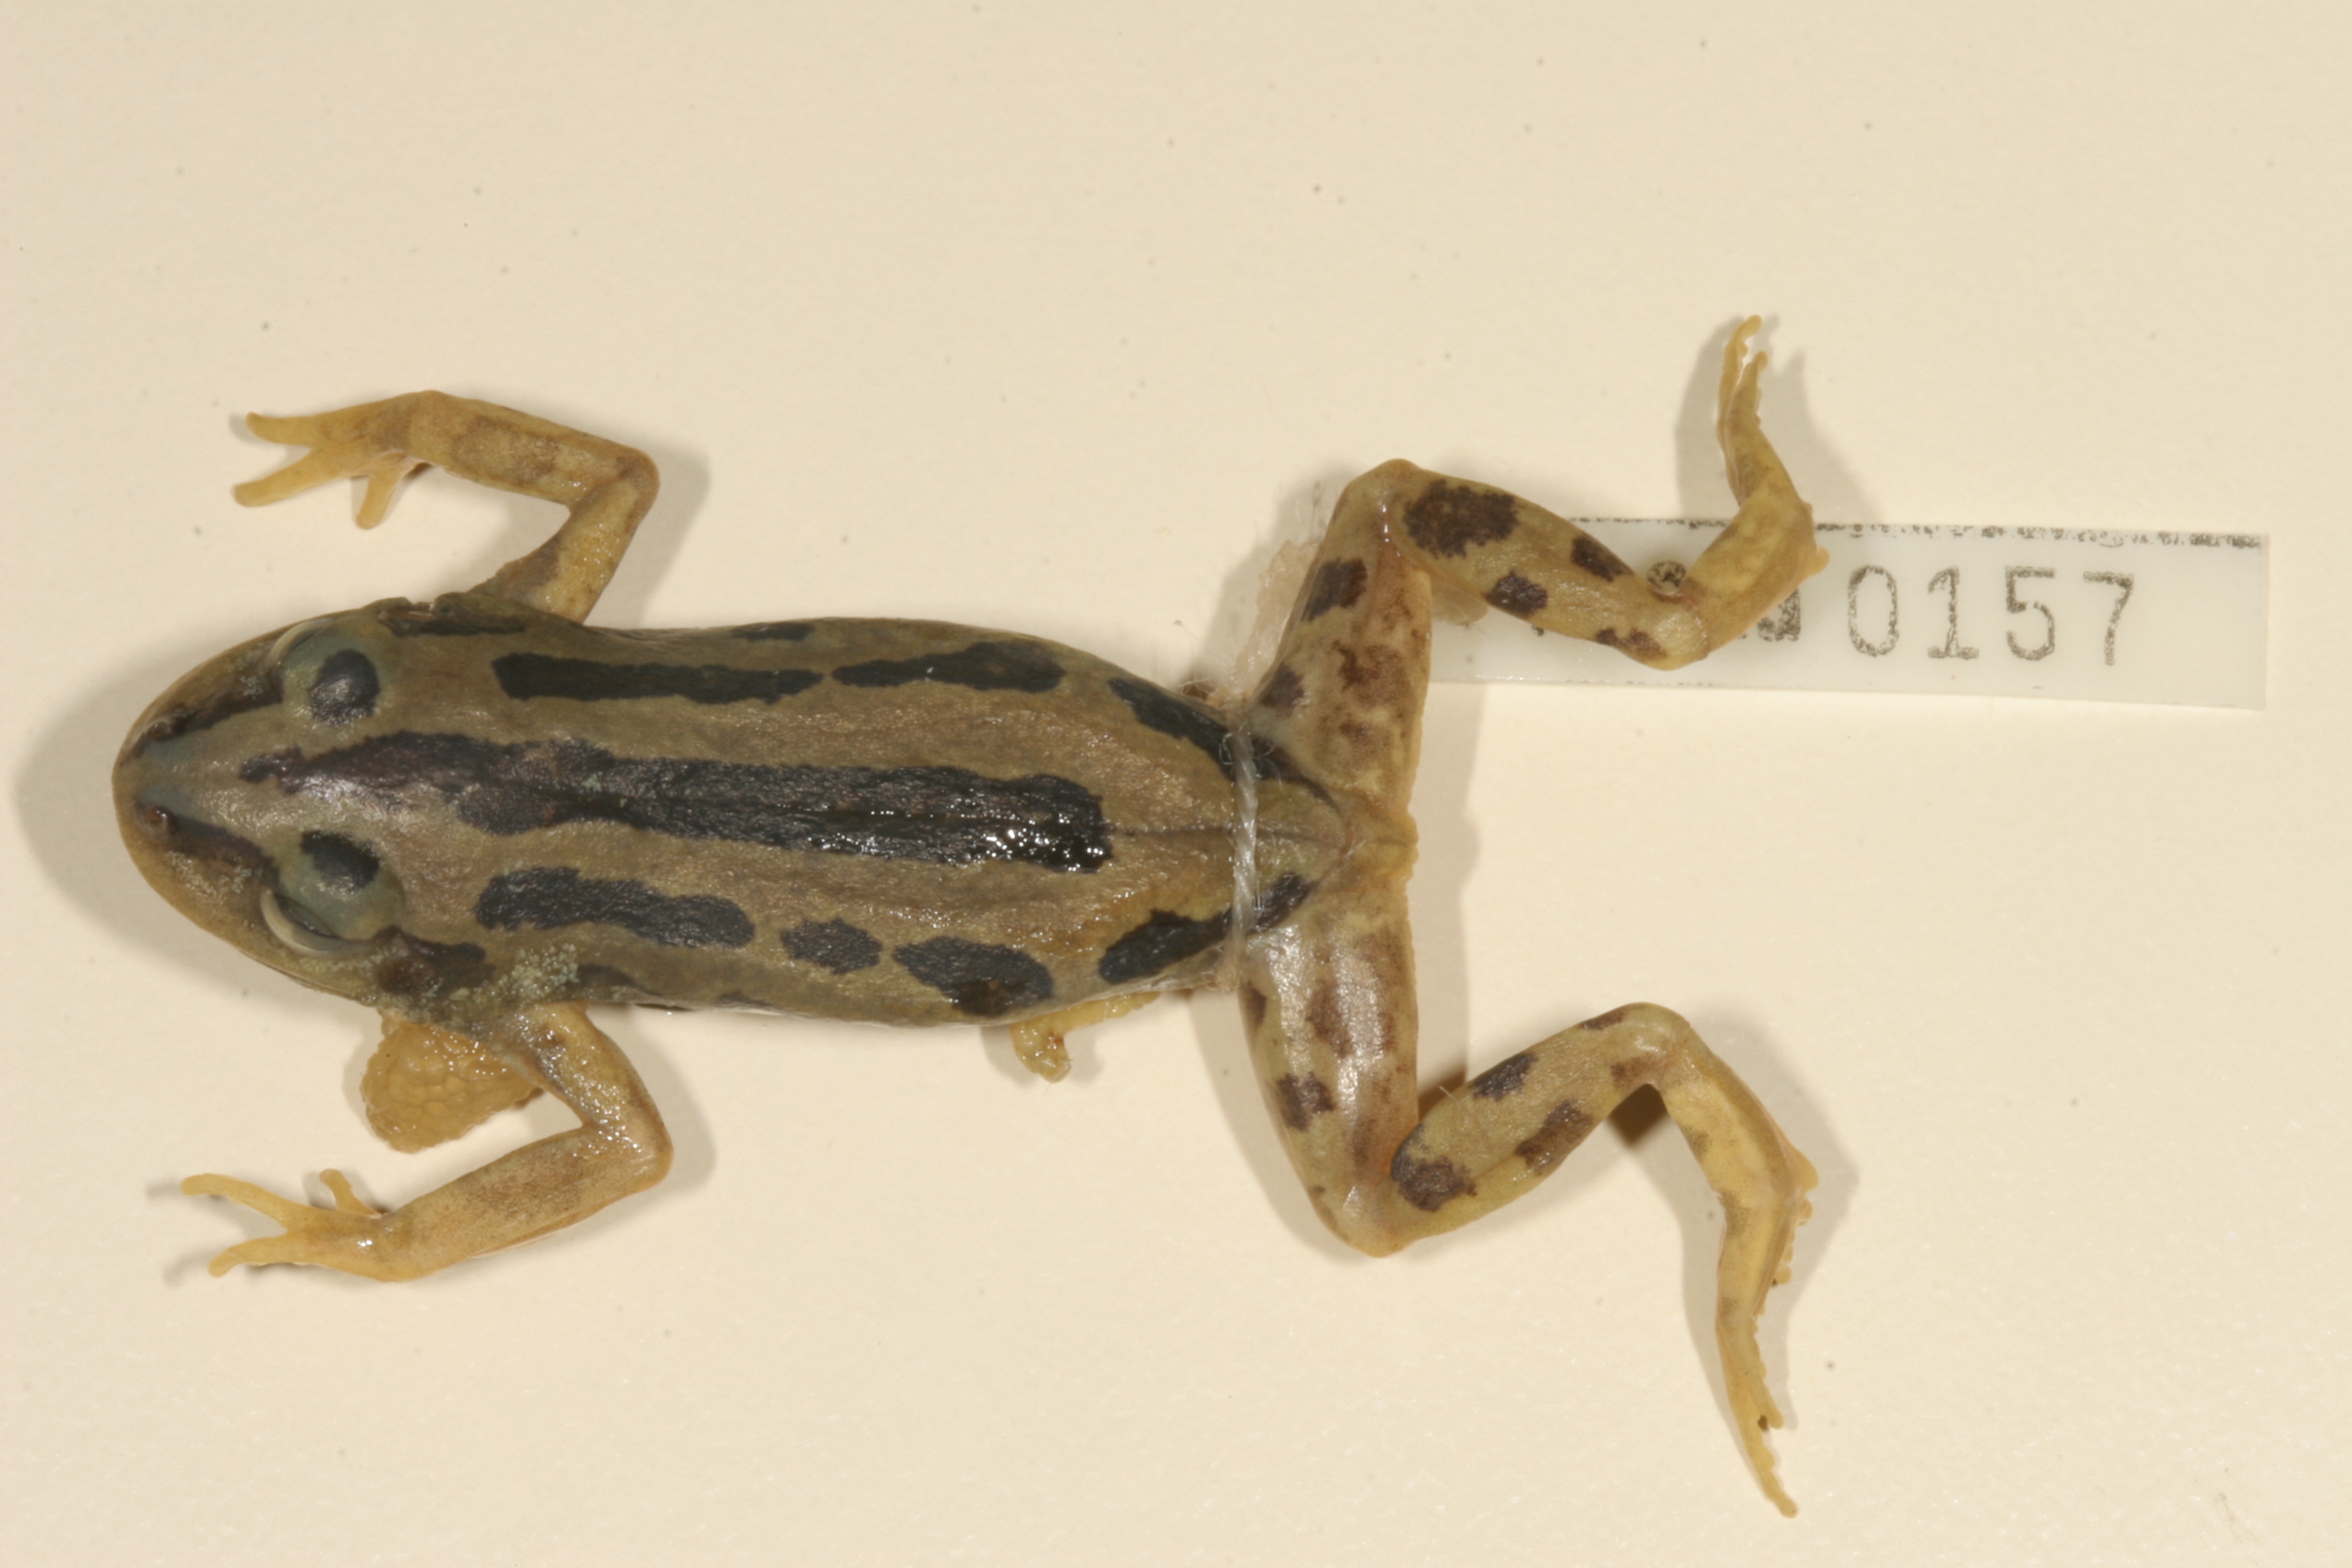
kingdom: Animalia
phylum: Chordata
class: Amphibia
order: Anura
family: Hyperoliidae
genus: Kassina
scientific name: Kassina senegalensis
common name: Senegal land frog
